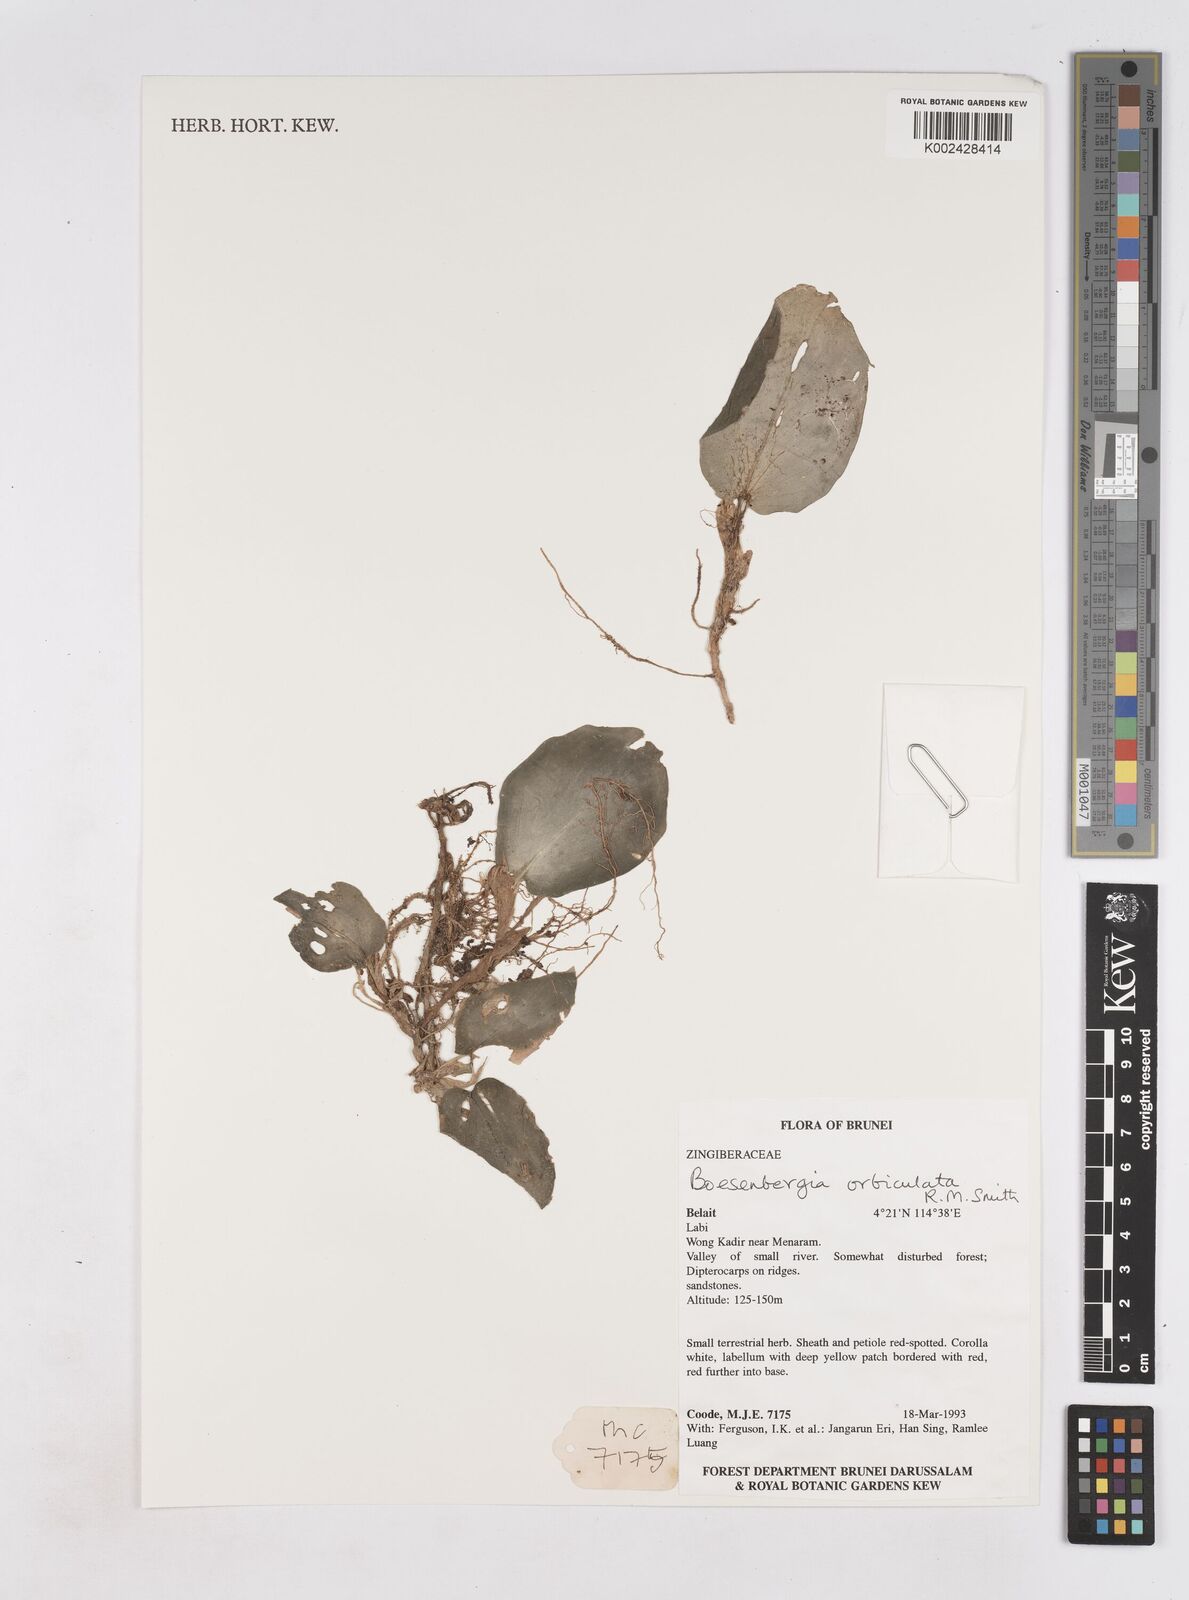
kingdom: Plantae
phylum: Tracheophyta
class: Liliopsida
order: Zingiberales
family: Zingiberaceae
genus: Boesenbergia
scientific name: Boesenbergia orbiculata
